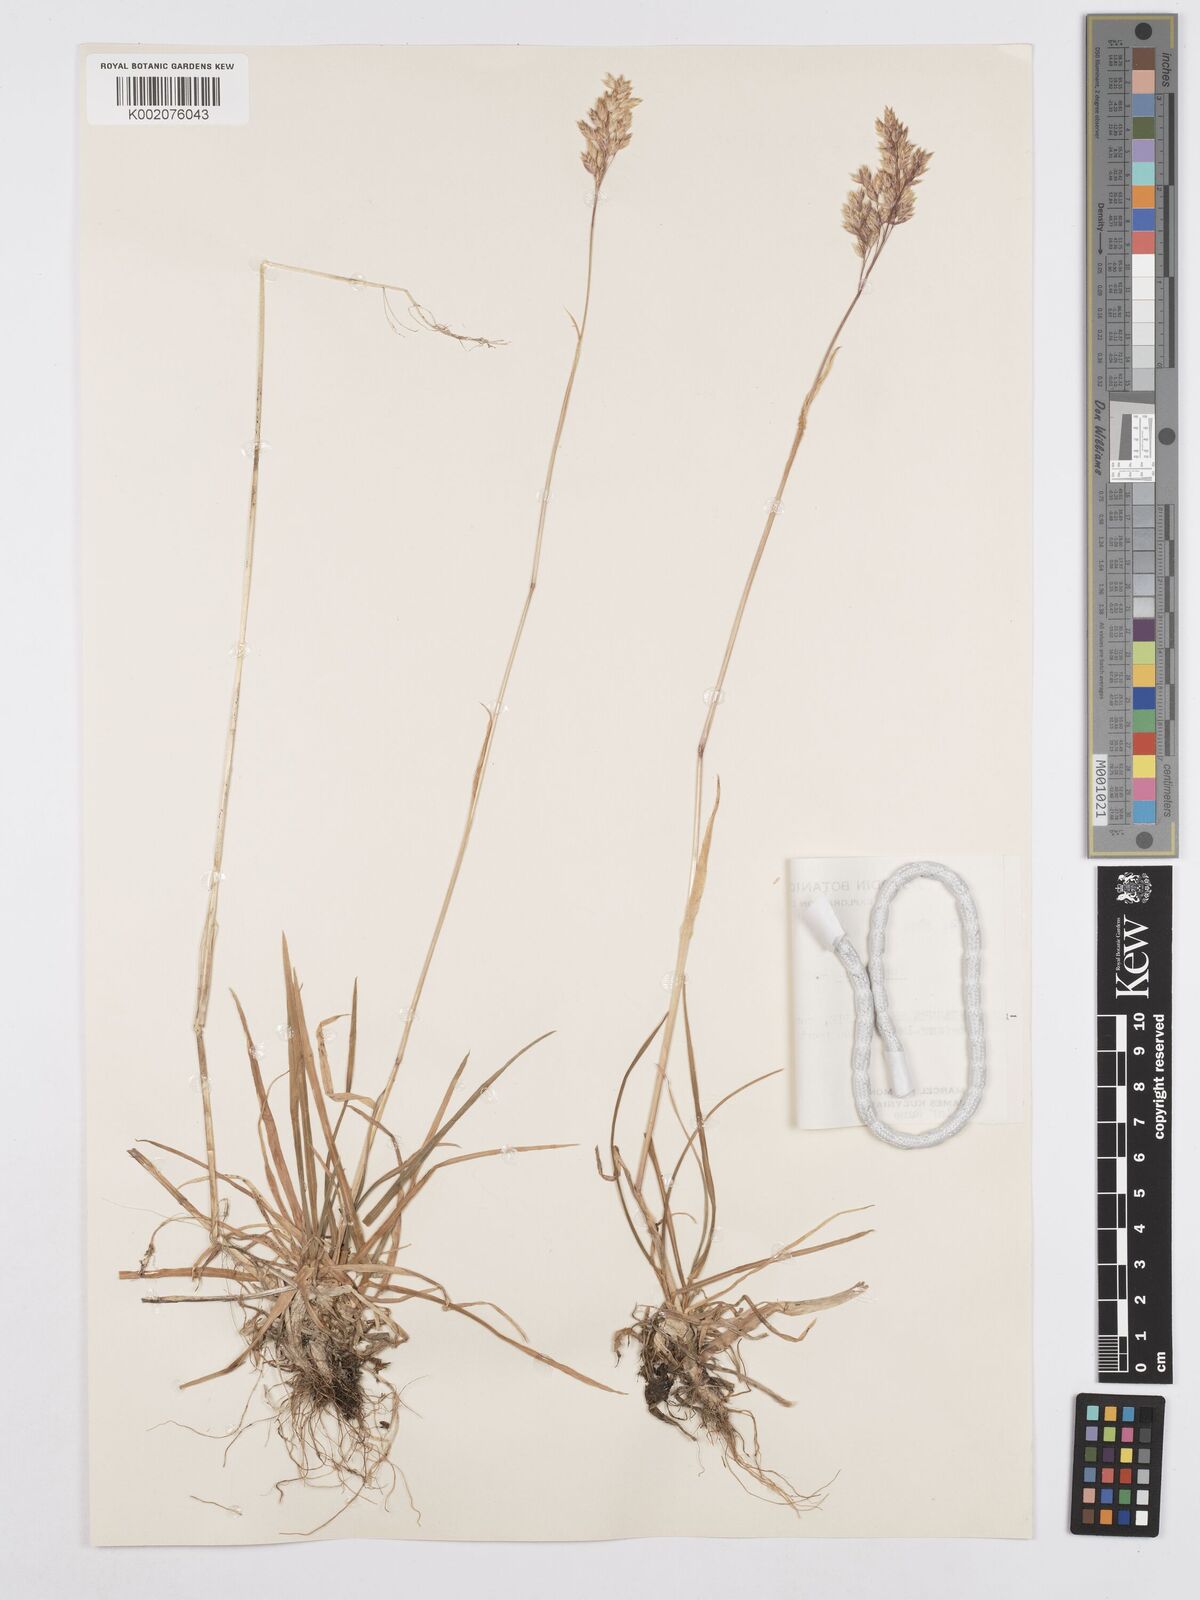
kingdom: Plantae
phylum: Tracheophyta
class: Liliopsida
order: Poales
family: Poaceae
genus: Poa
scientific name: Poa alpina
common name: Alpine bluegrass
